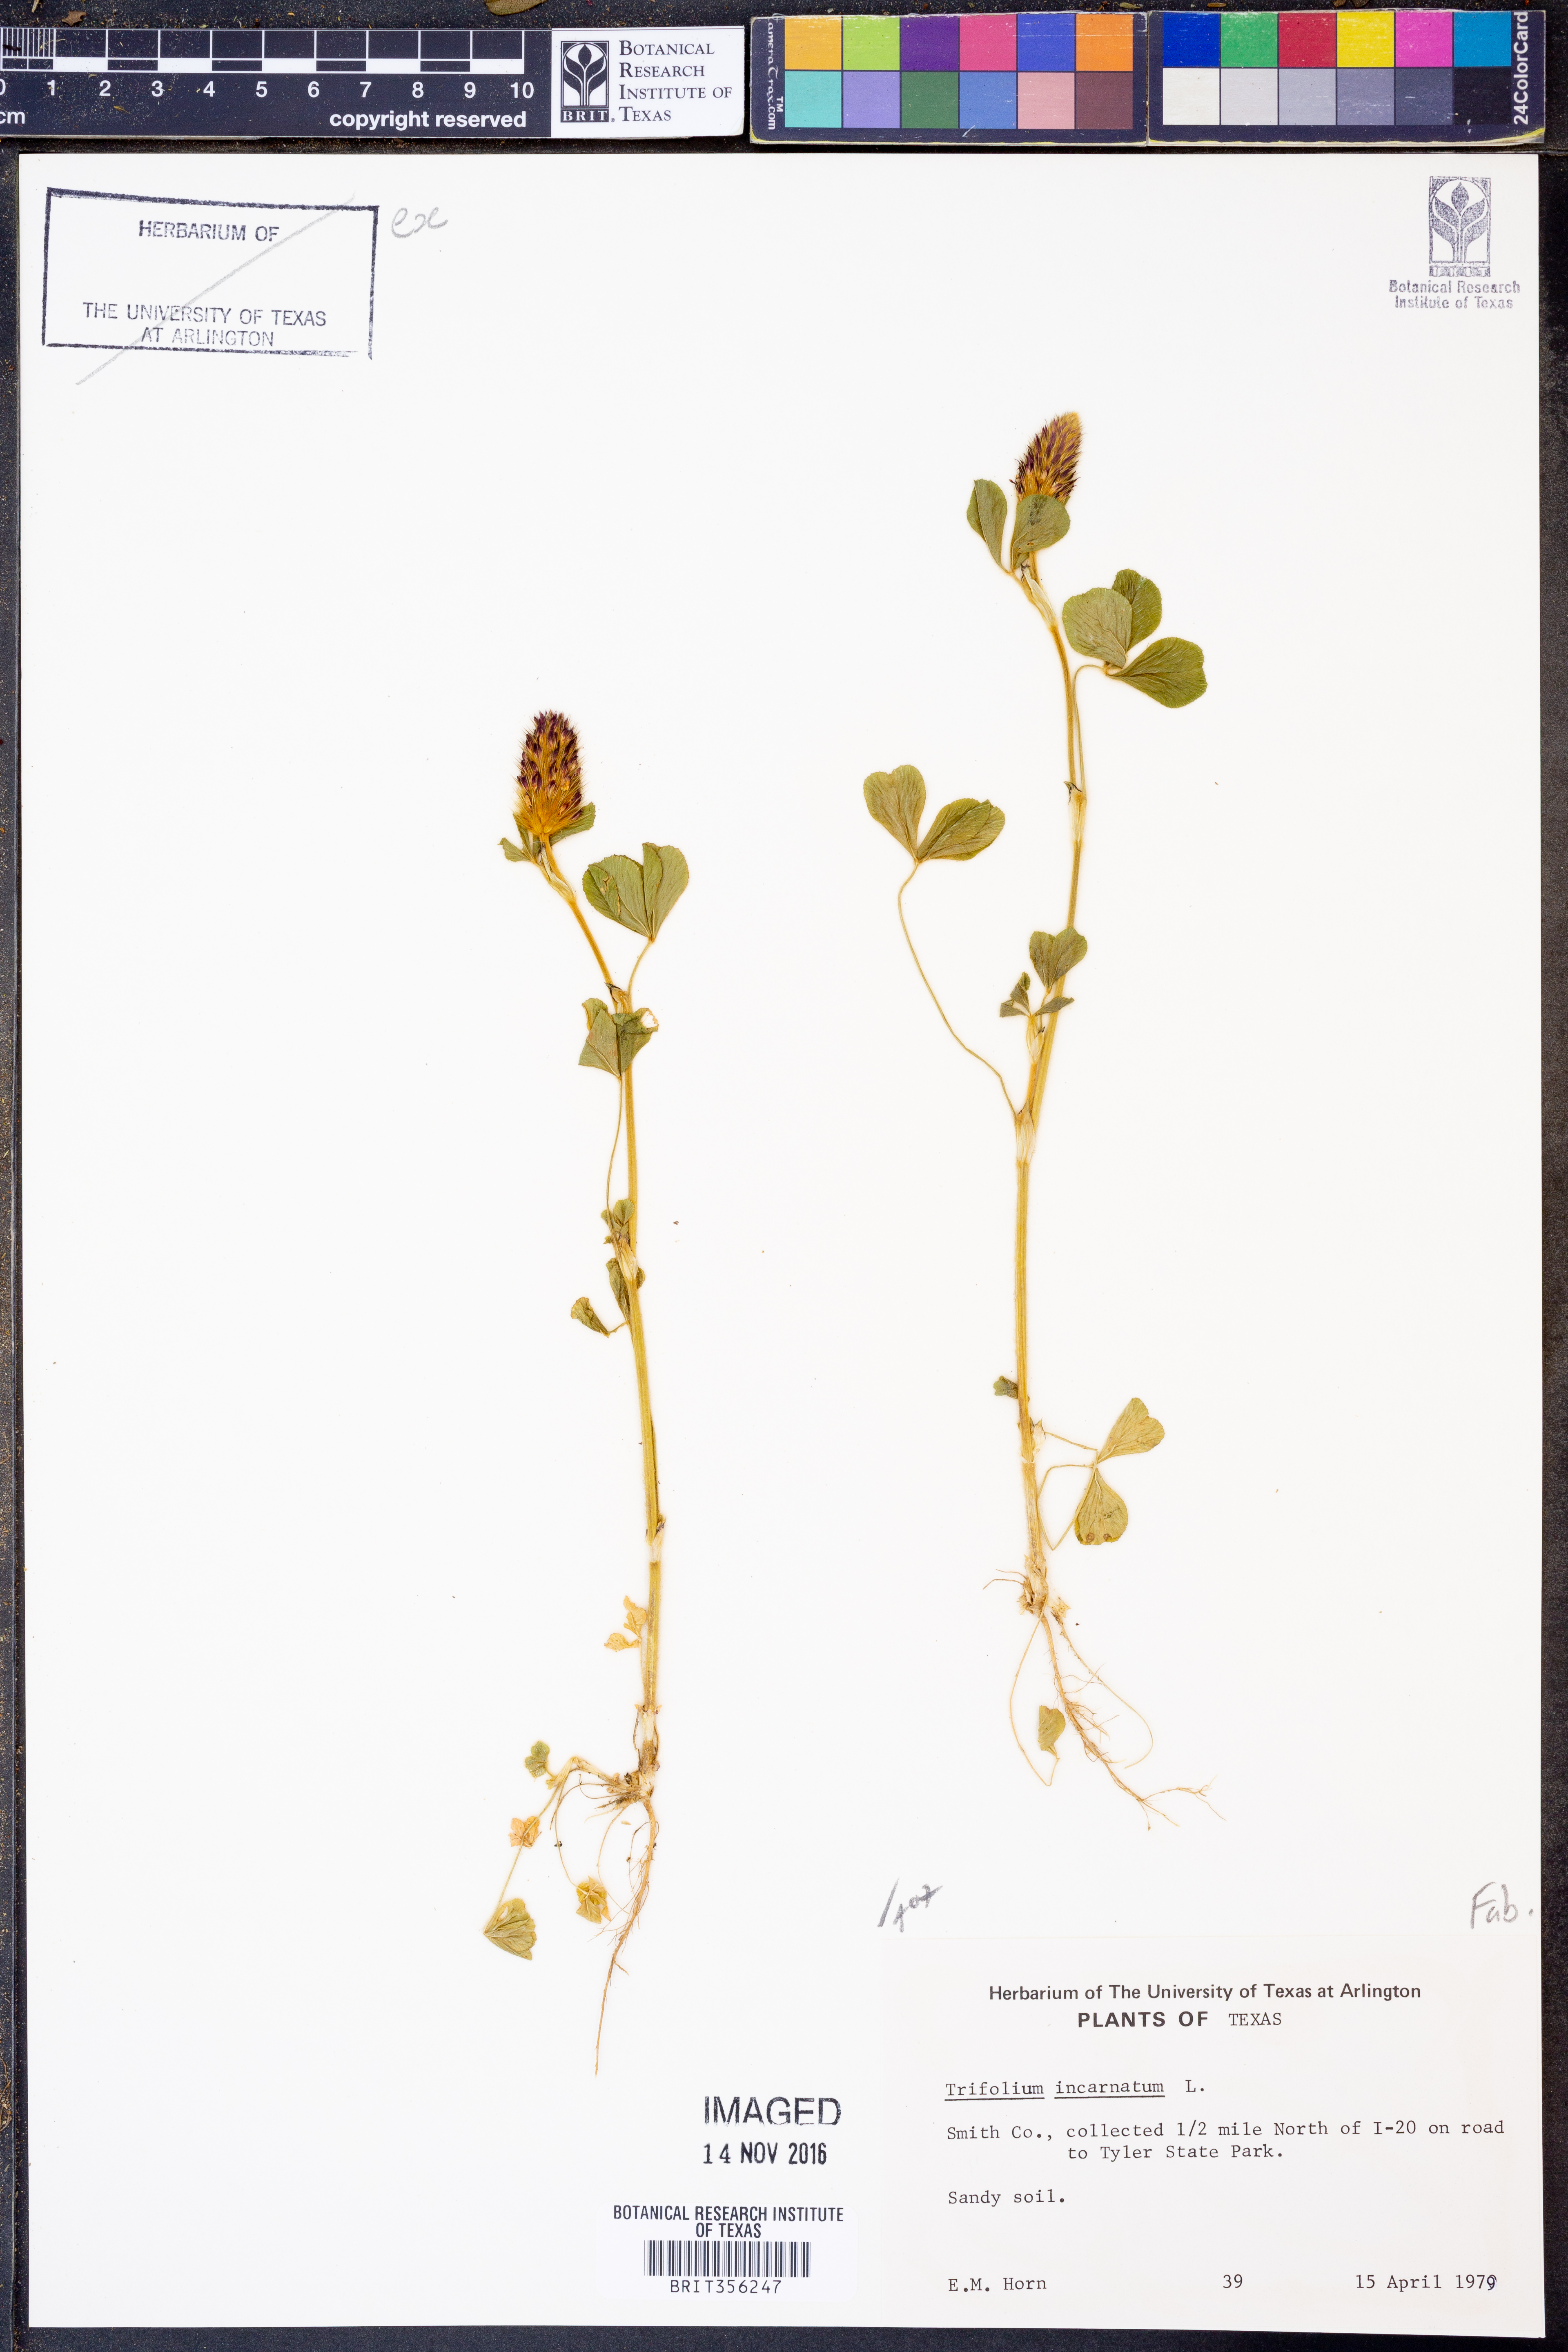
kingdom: Plantae
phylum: Tracheophyta
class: Magnoliopsida
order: Fabales
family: Fabaceae
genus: Trifolium
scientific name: Trifolium incarnatum
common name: Crimson clover
